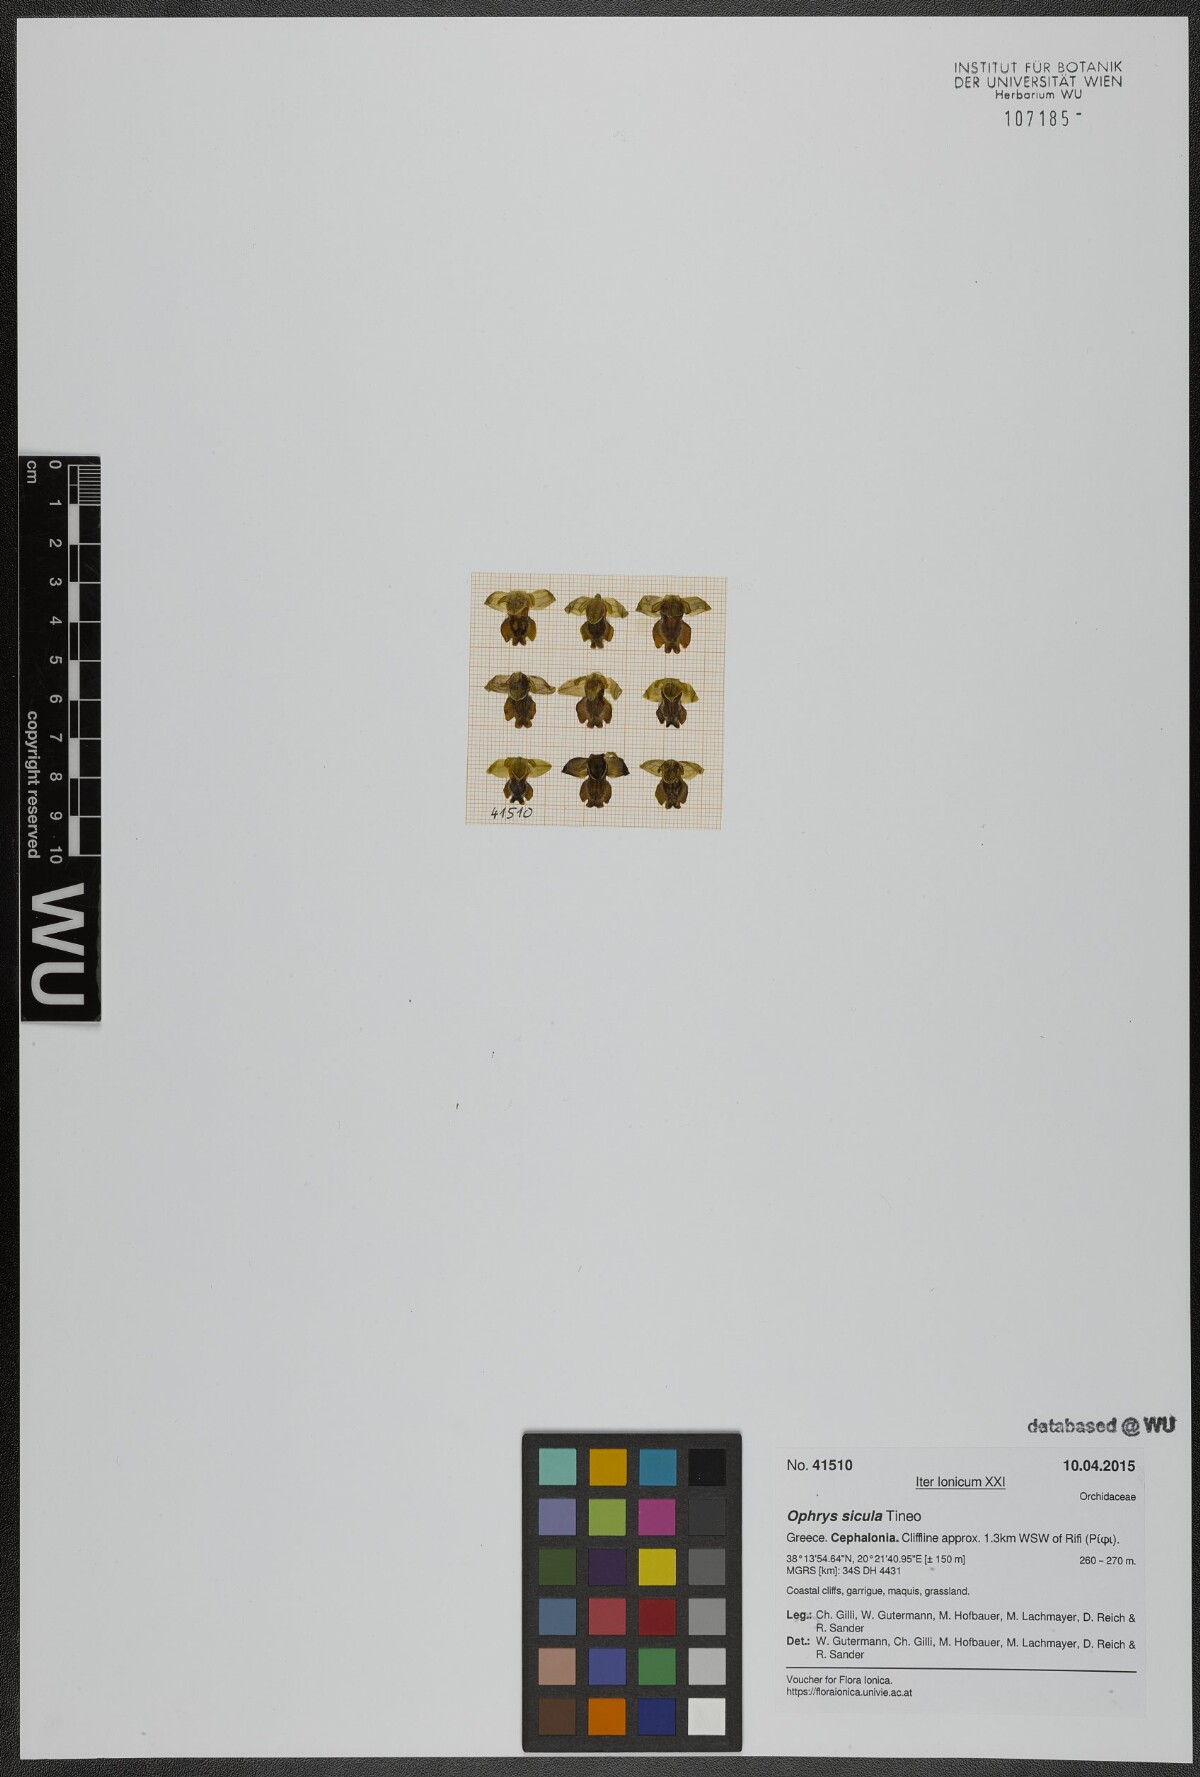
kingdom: Plantae
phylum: Tracheophyta
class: Liliopsida
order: Asparagales
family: Orchidaceae
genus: Ophrys
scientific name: Ophrys lutea
